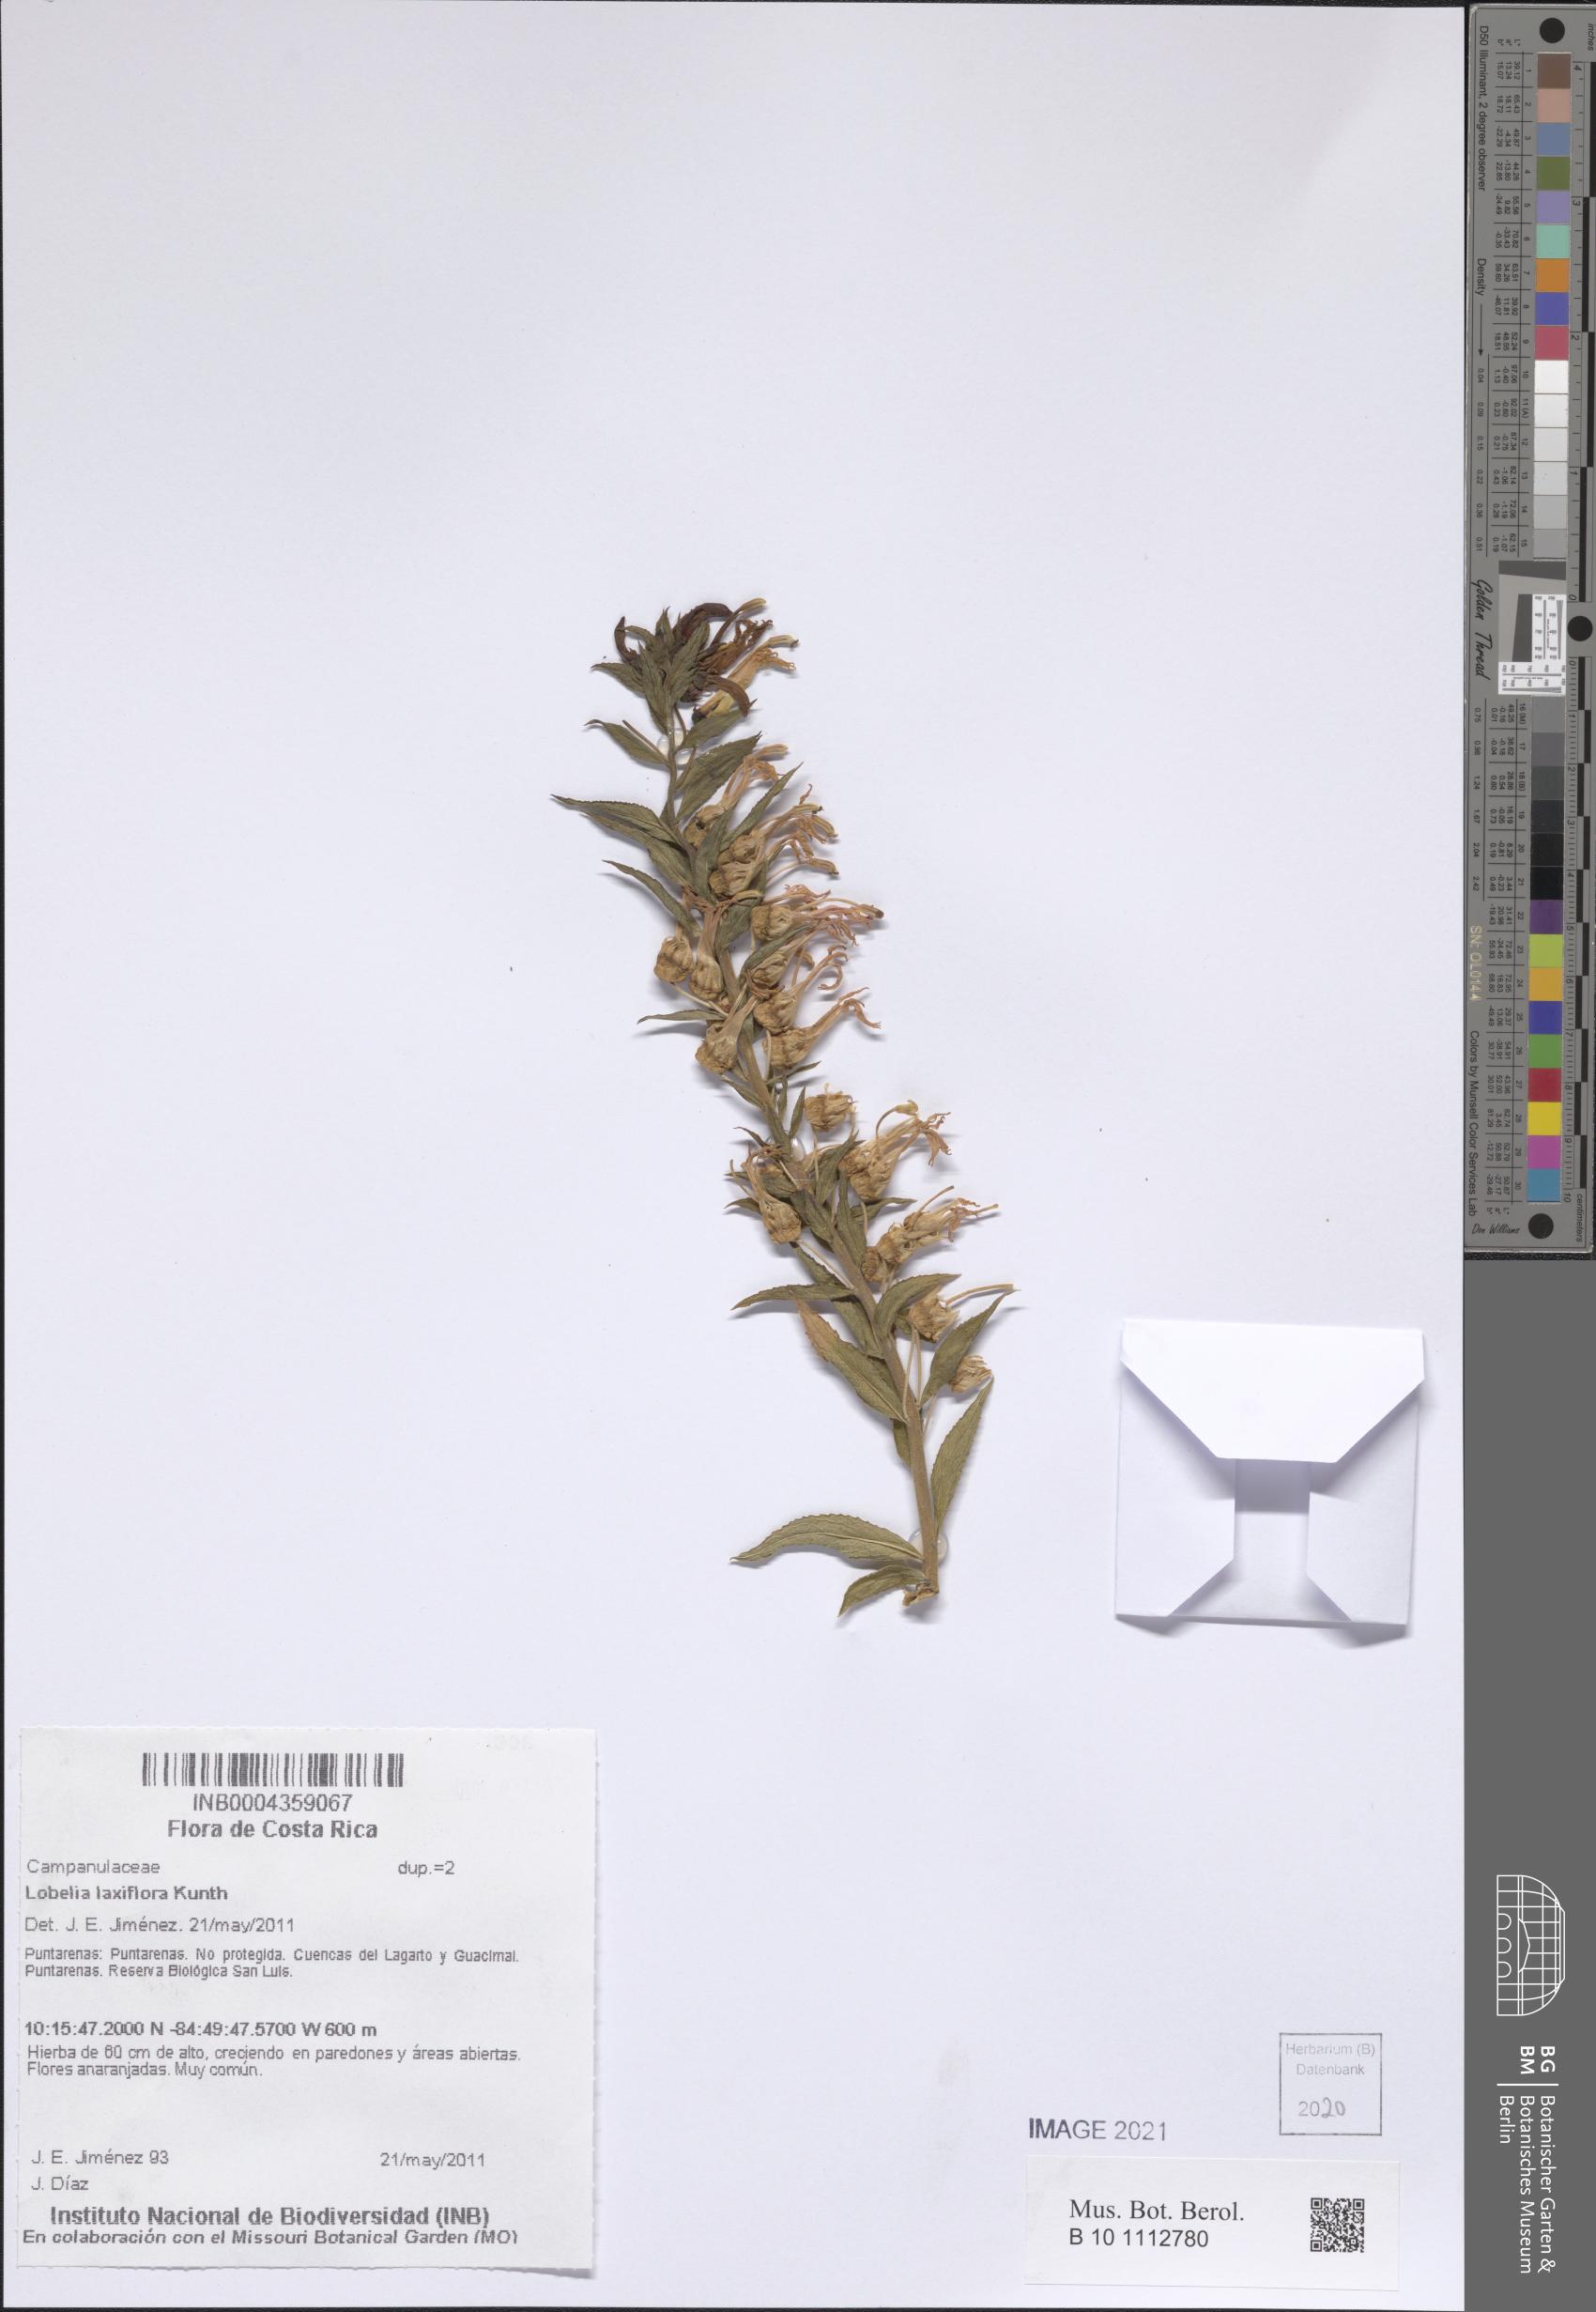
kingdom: Plantae
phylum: Tracheophyta
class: Magnoliopsida
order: Asterales
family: Campanulaceae
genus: Lobelia
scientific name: Lobelia laxiflora
